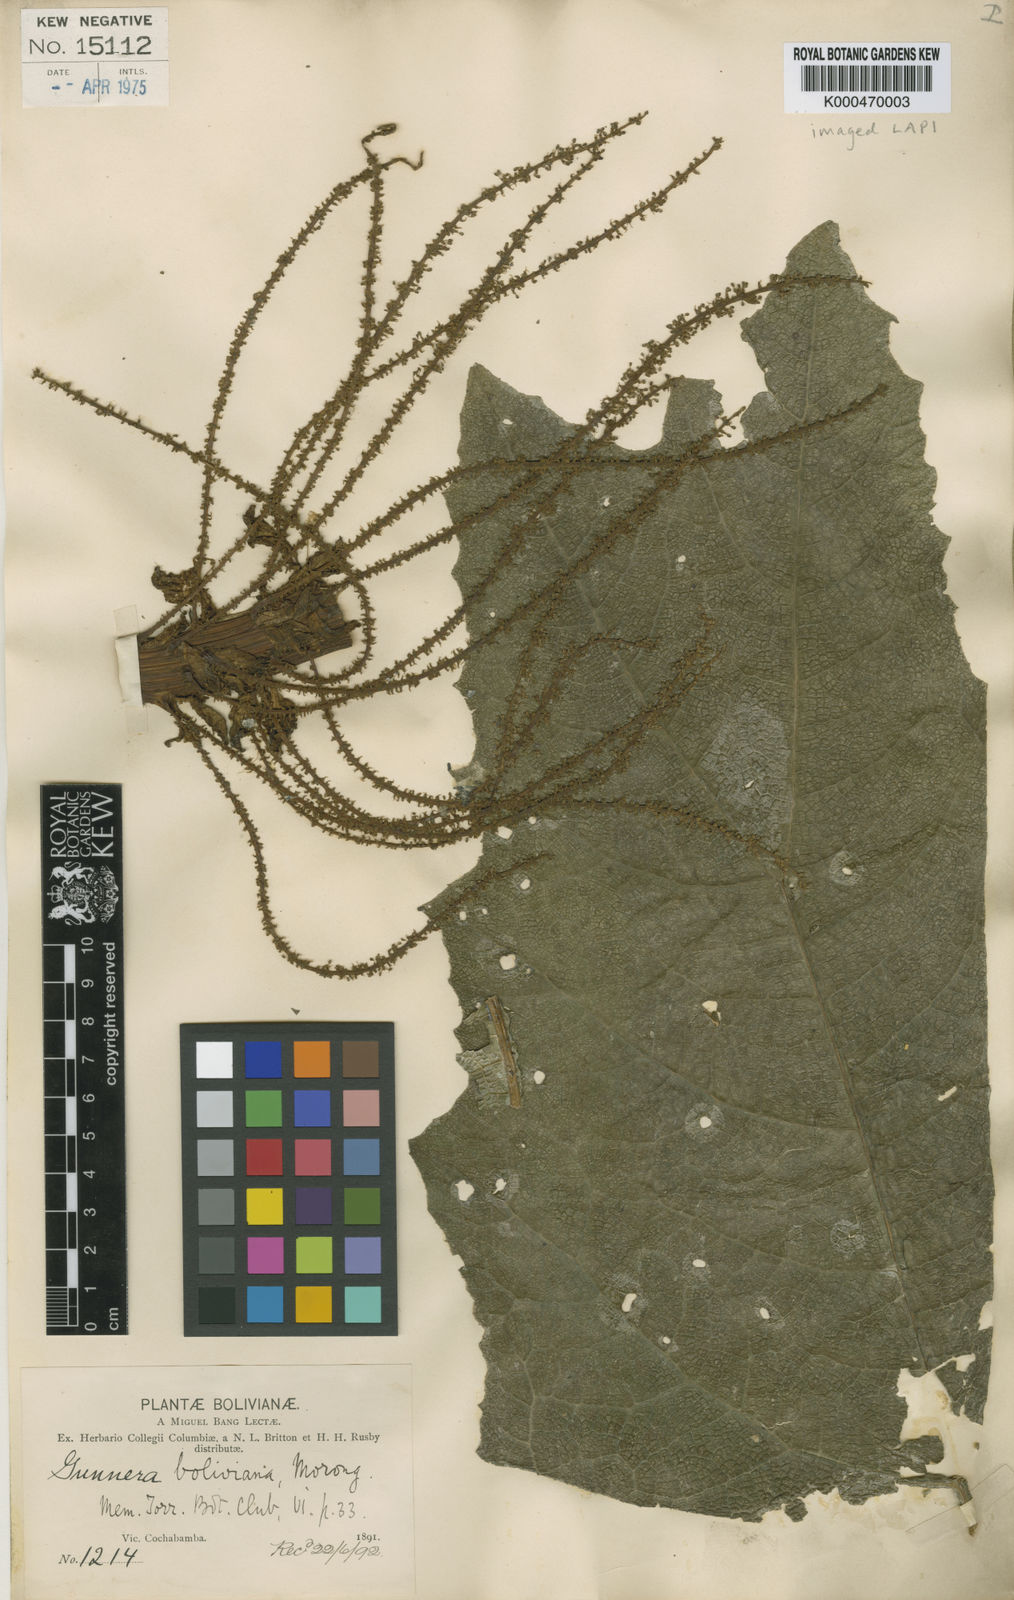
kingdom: Plantae
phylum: Tracheophyta
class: Magnoliopsida
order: Gunnerales
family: Gunneraceae
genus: Gunnera
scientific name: Gunnera
